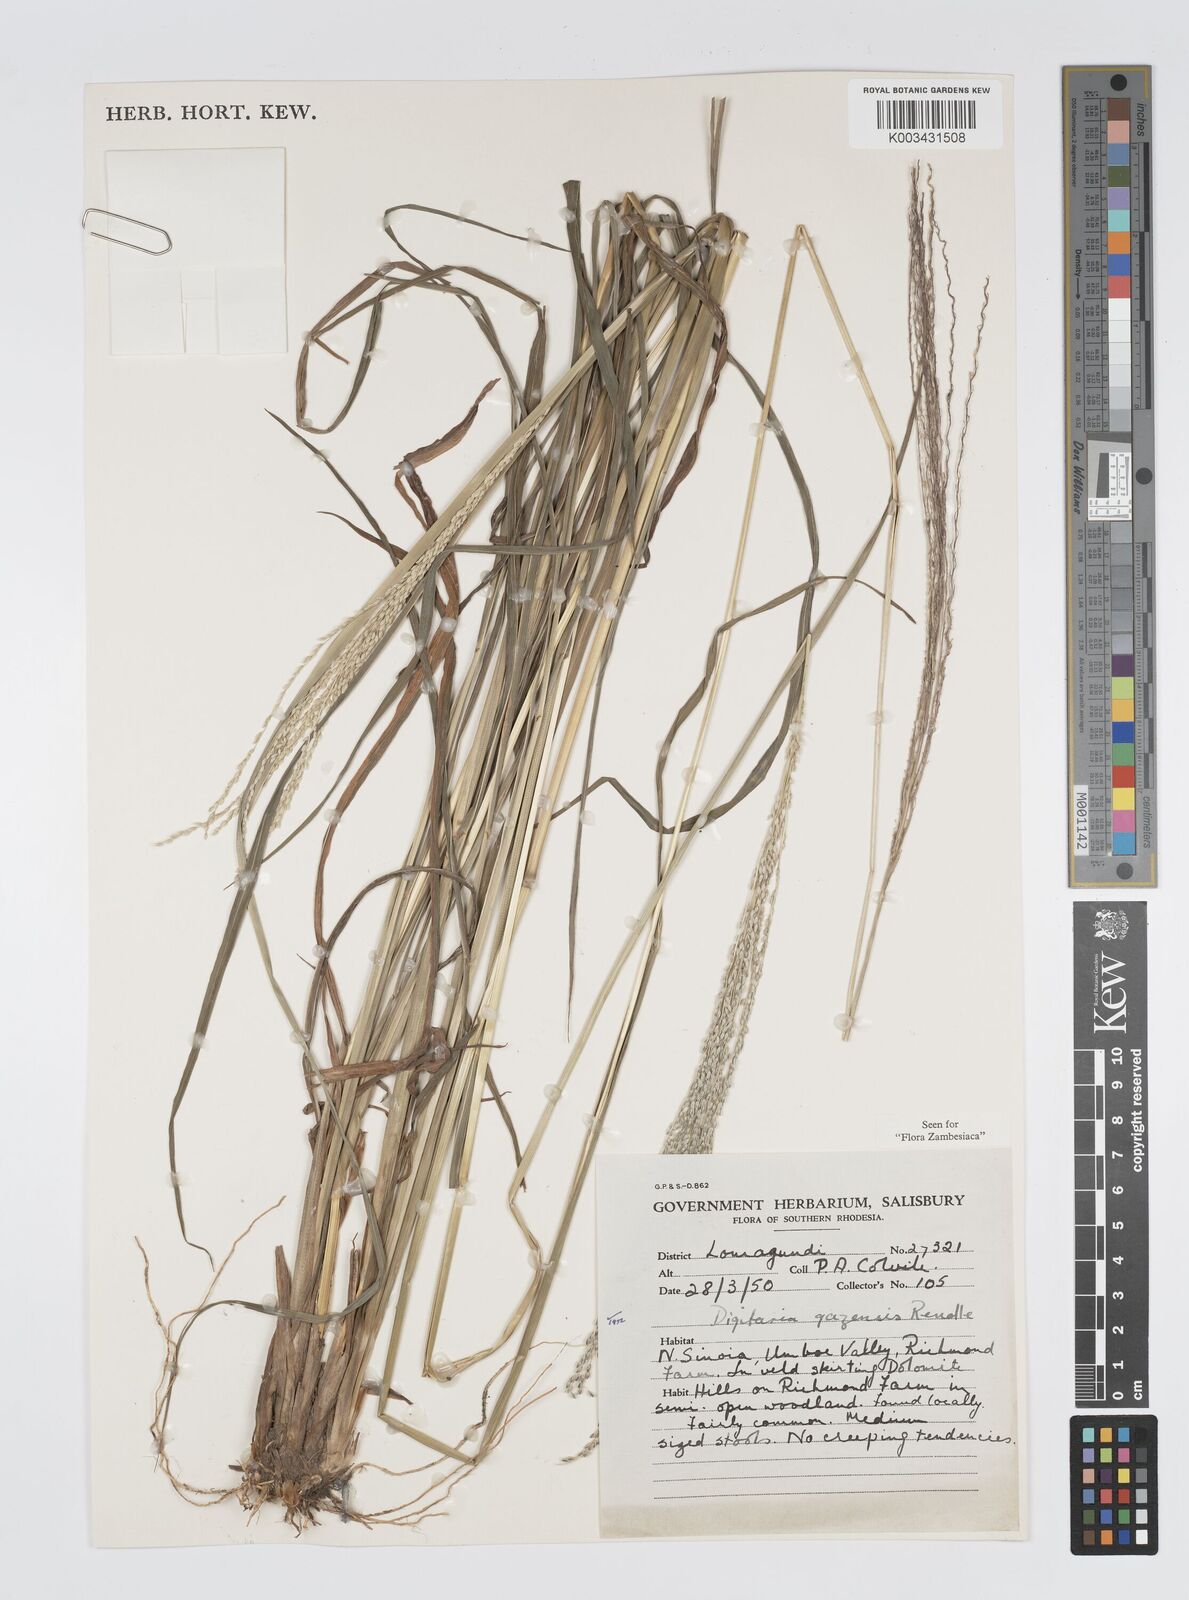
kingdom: Plantae
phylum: Tracheophyta
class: Liliopsida
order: Poales
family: Poaceae
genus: Digitaria
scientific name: Digitaria gazensis
